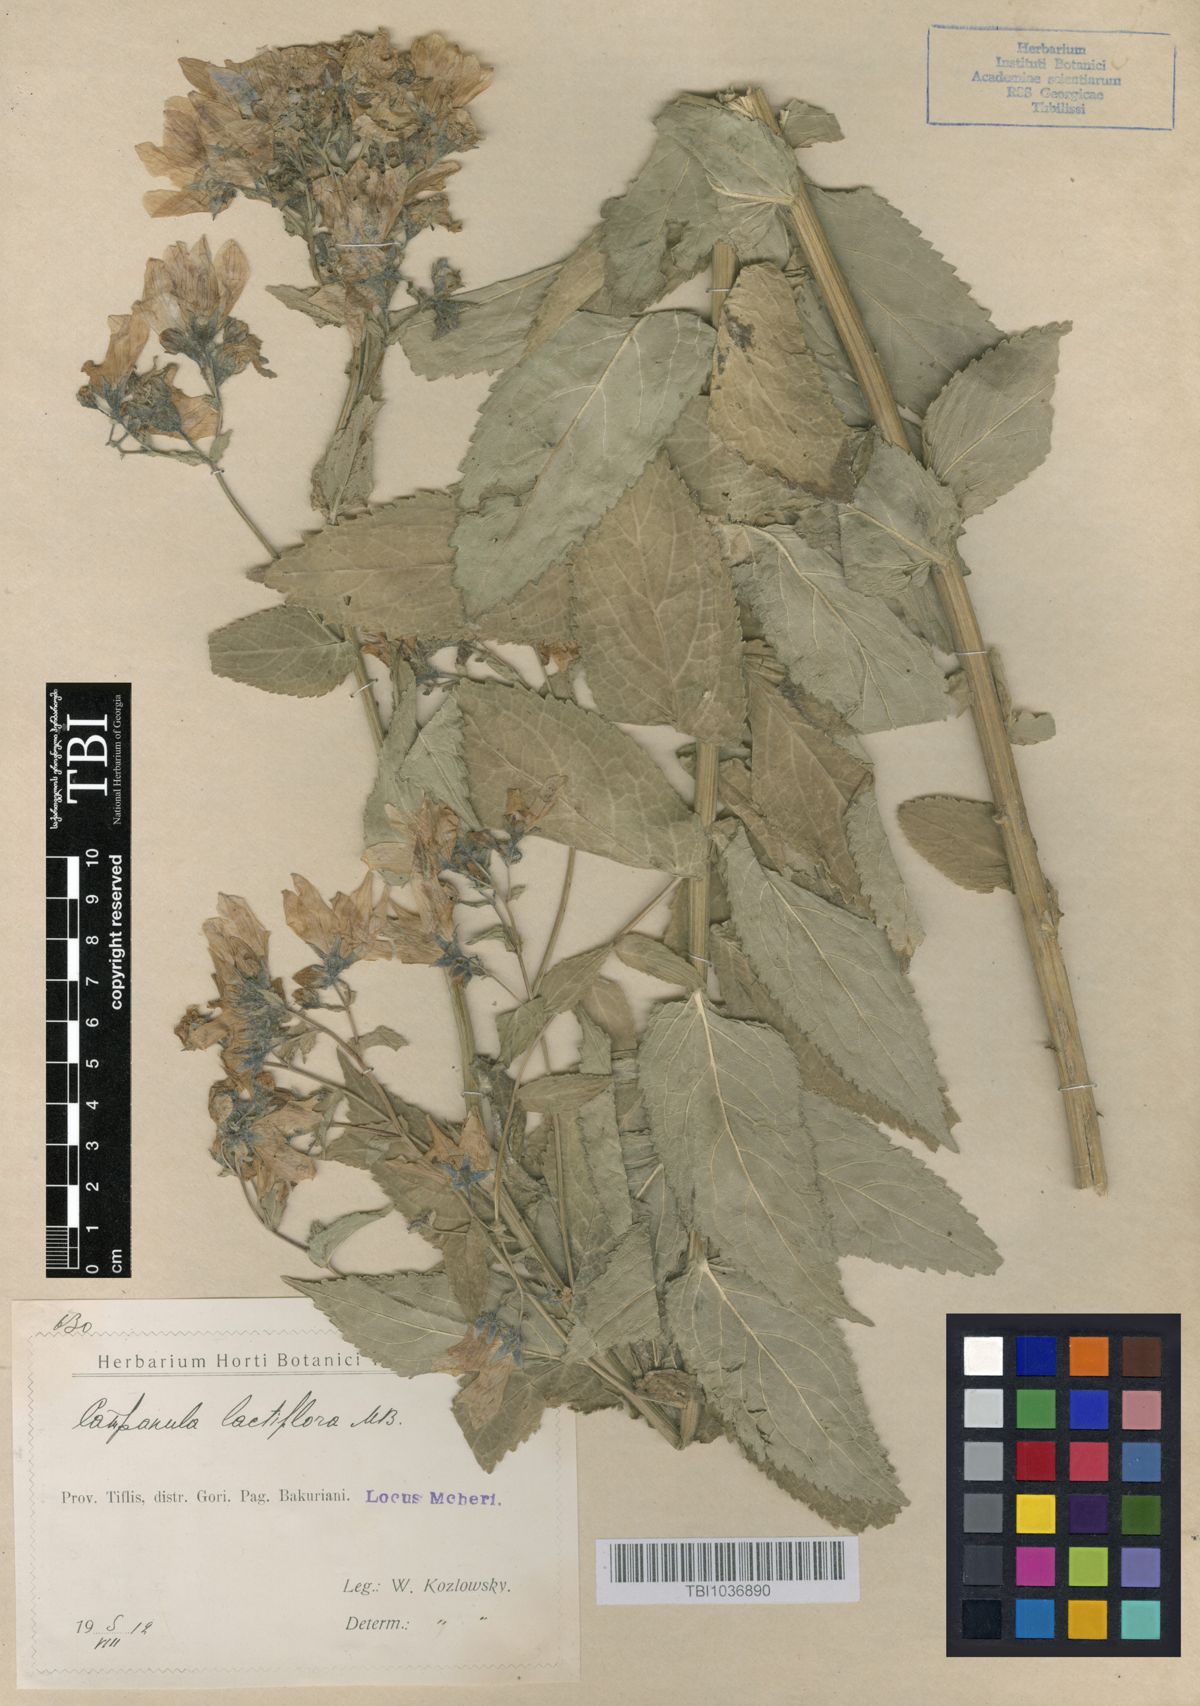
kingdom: Plantae
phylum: Tracheophyta
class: Magnoliopsida
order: Asterales
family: Campanulaceae
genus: Campanula
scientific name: Campanula lactiflora
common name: Milky bellflower
